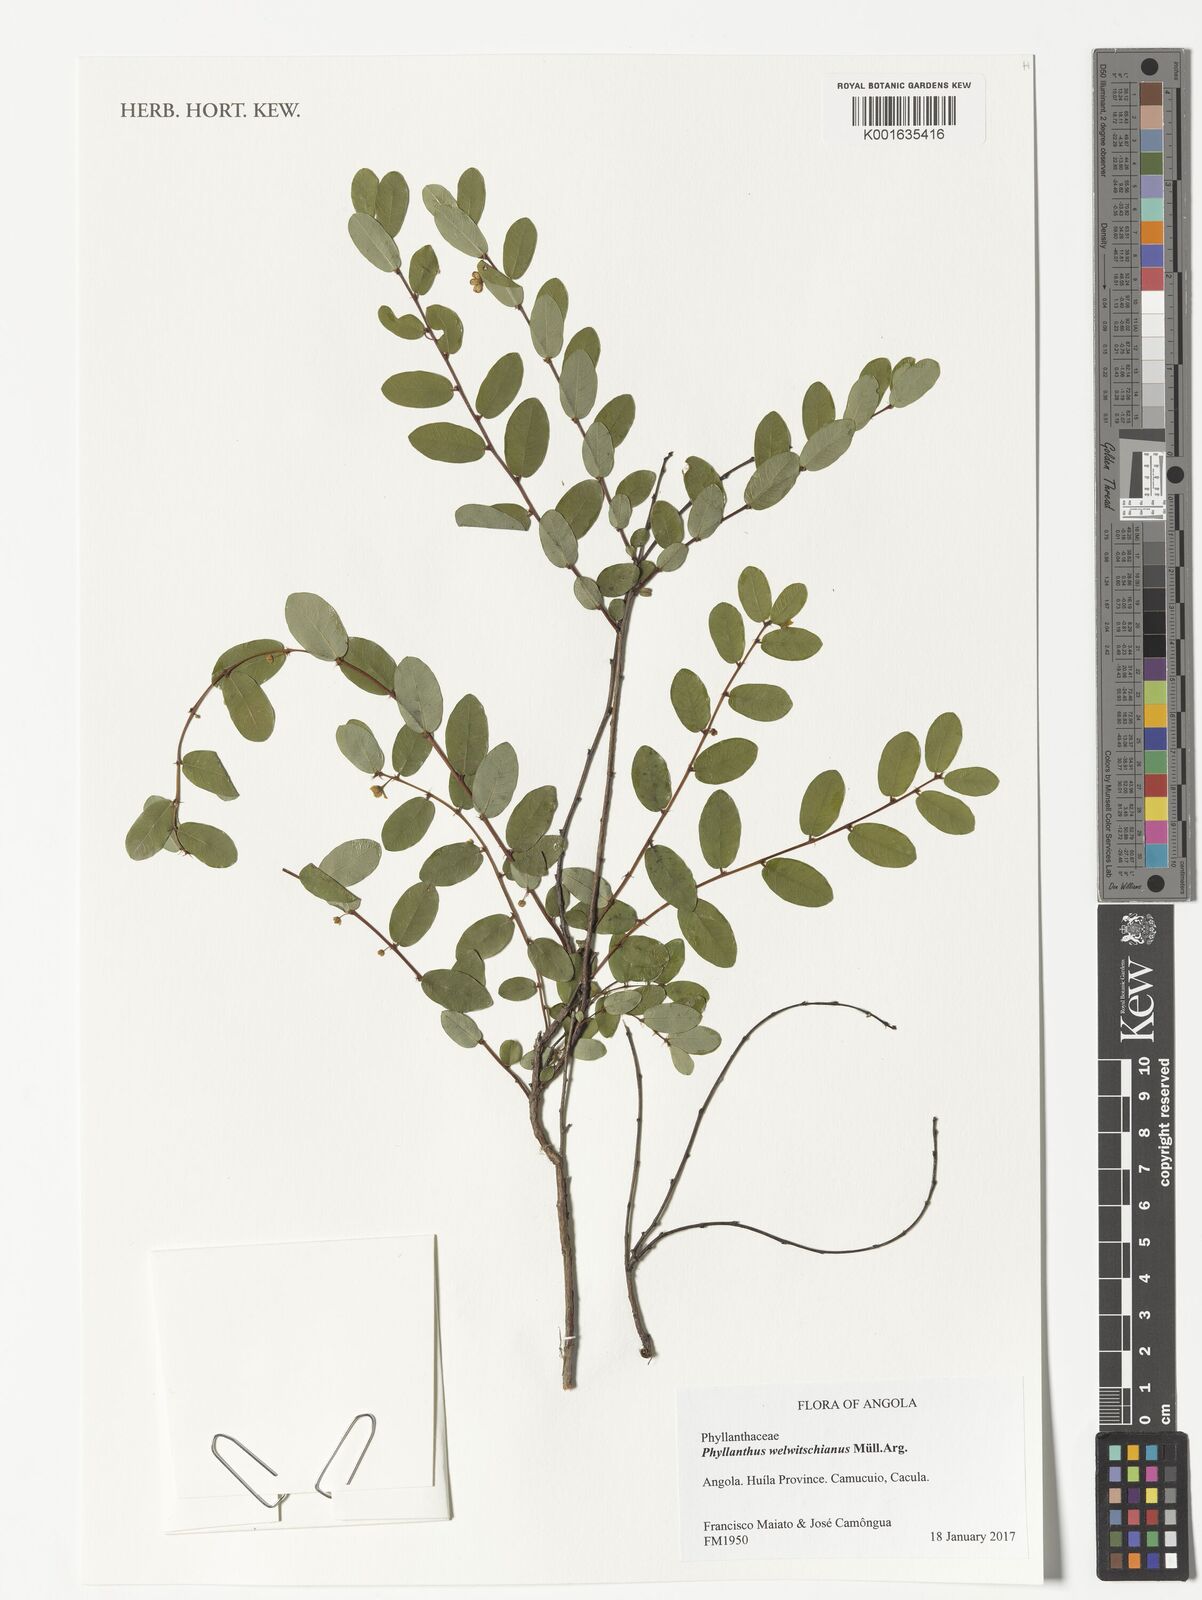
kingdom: Plantae
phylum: Tracheophyta
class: Magnoliopsida
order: Malpighiales
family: Phyllanthaceae
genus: Phyllanthus
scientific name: Phyllanthus welwitschianus
